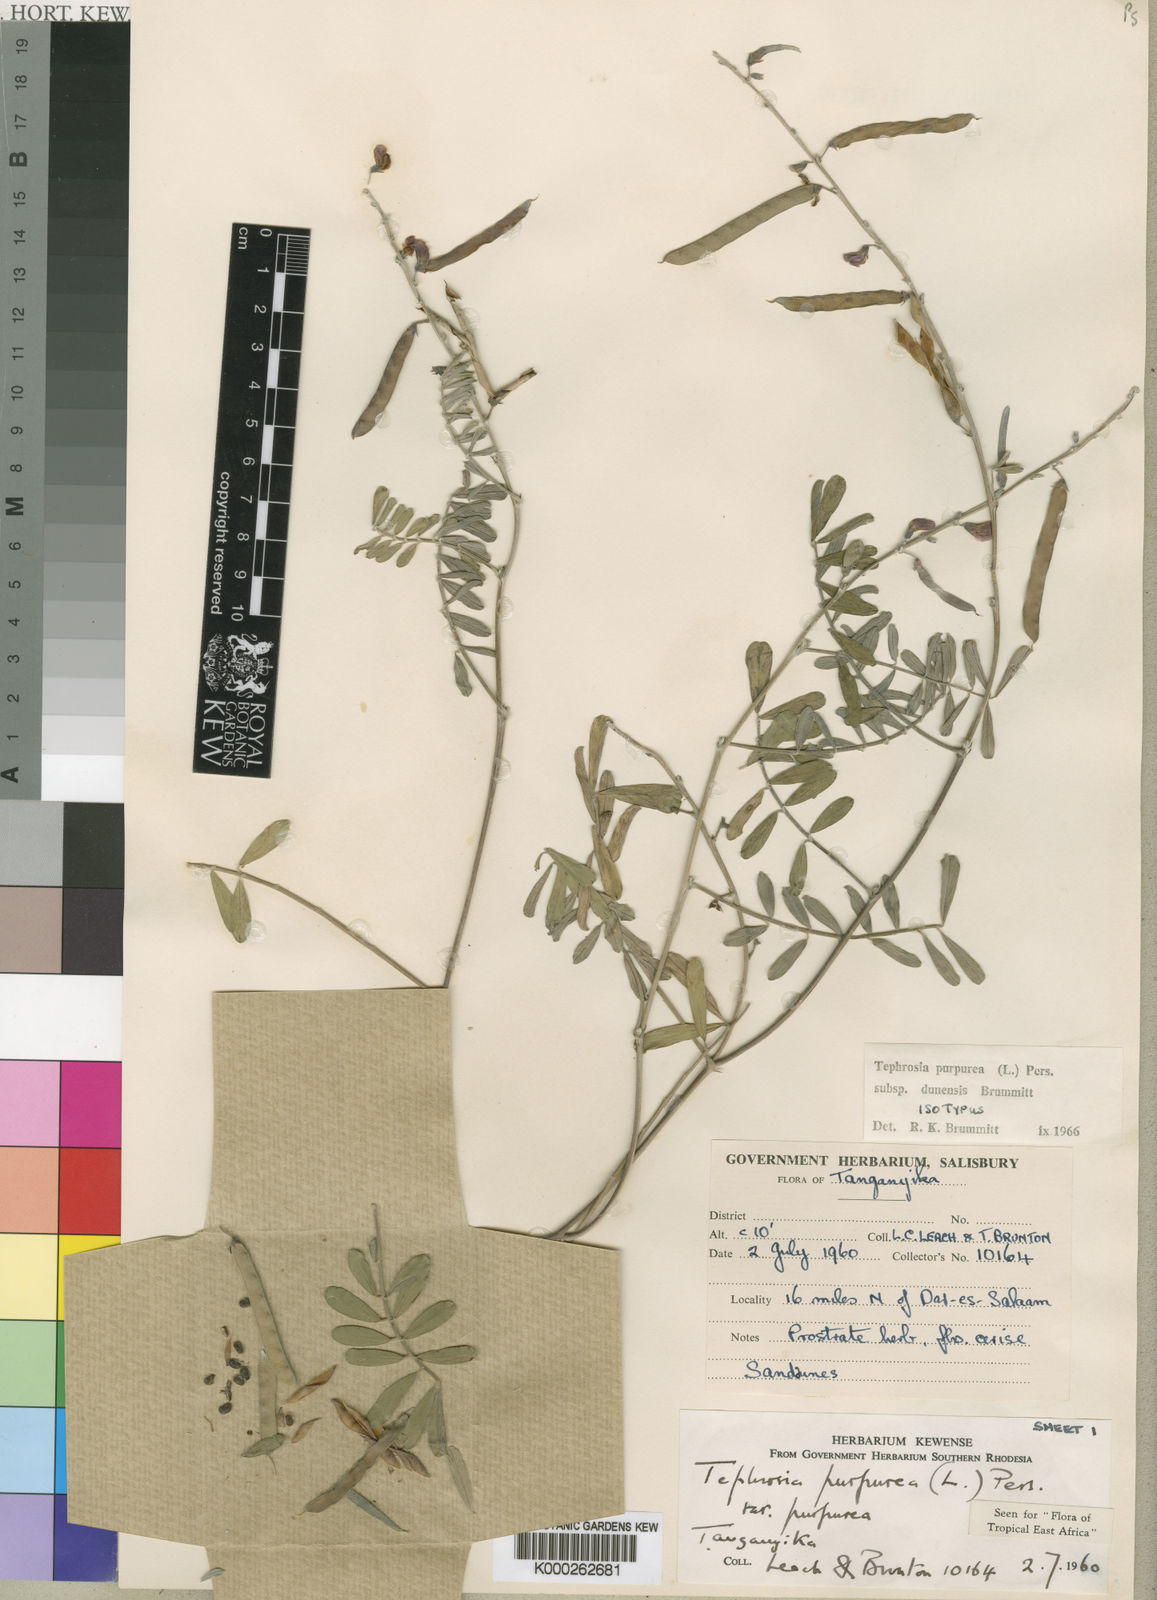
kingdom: Plantae
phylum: Tracheophyta
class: Magnoliopsida
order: Fabales
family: Fabaceae
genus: Tephrosia
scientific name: Tephrosia purpurea
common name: Fishpoison
